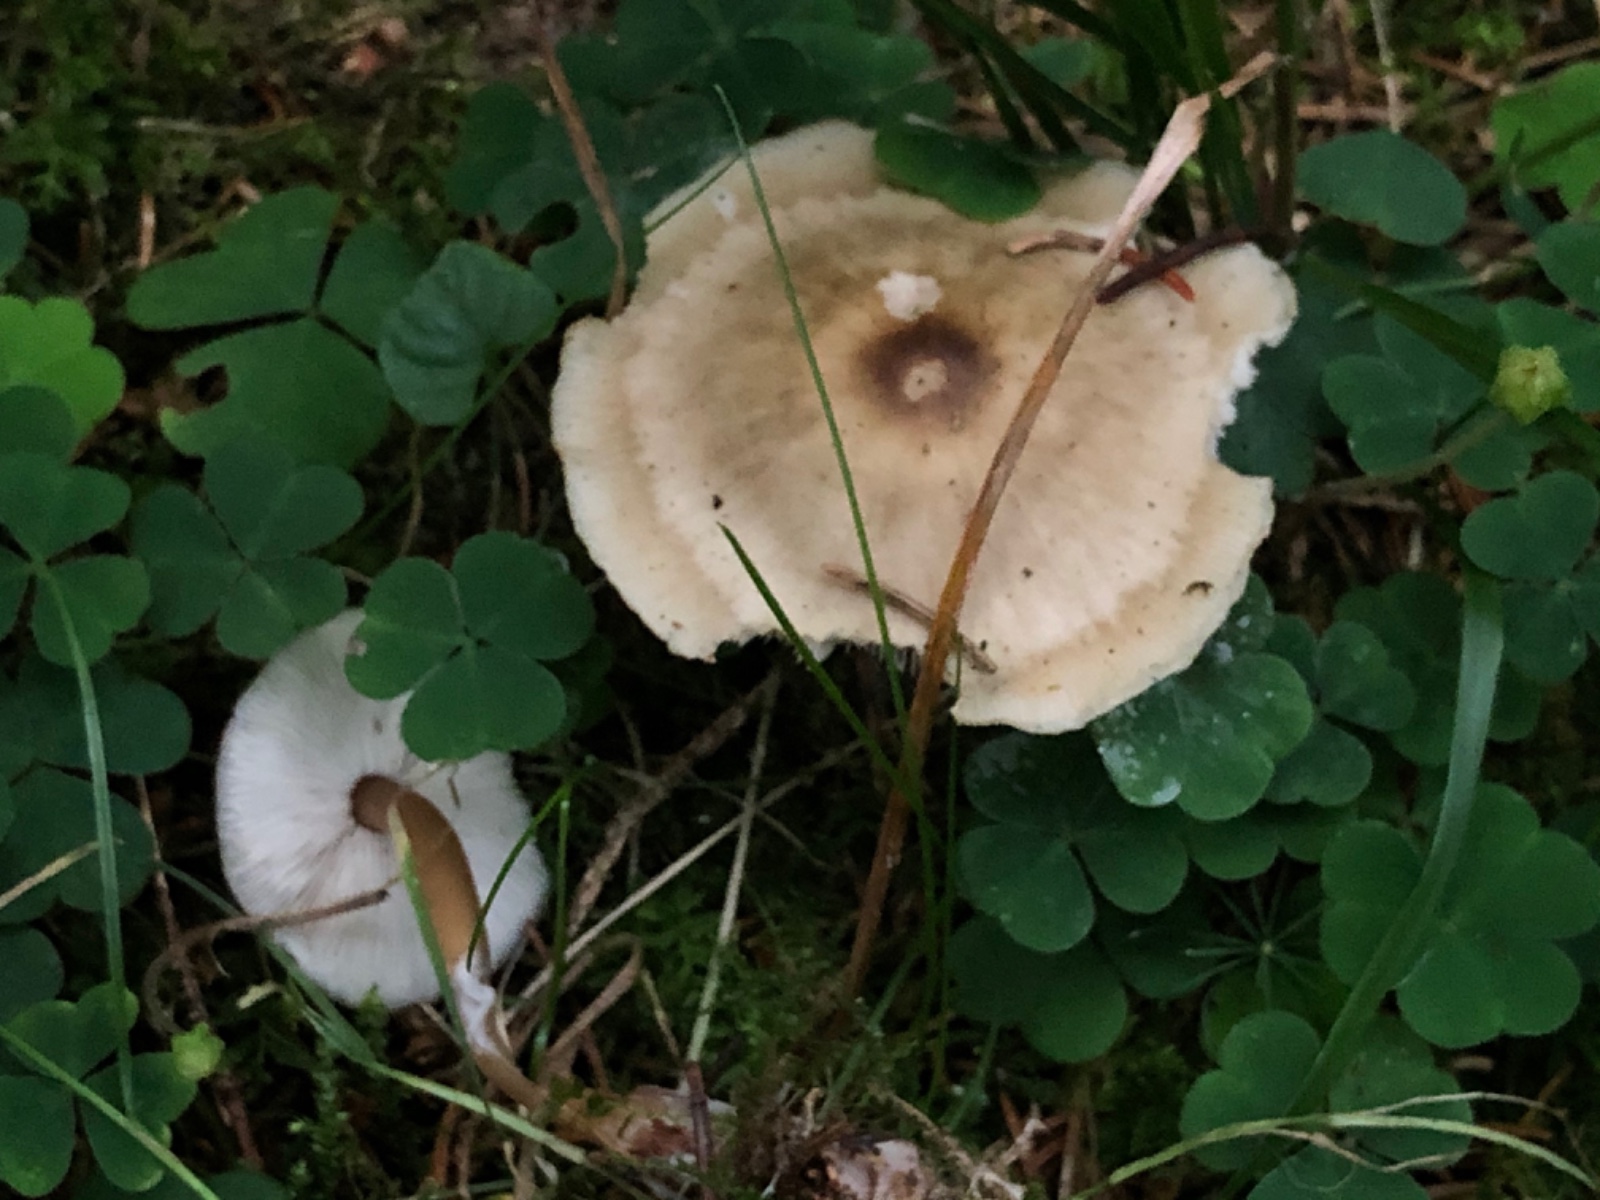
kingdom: Fungi
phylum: Basidiomycota
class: Agaricomycetes
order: Agaricales
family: Omphalotaceae
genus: Rhodocollybia
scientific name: Rhodocollybia asema
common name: horngrå fladhat
